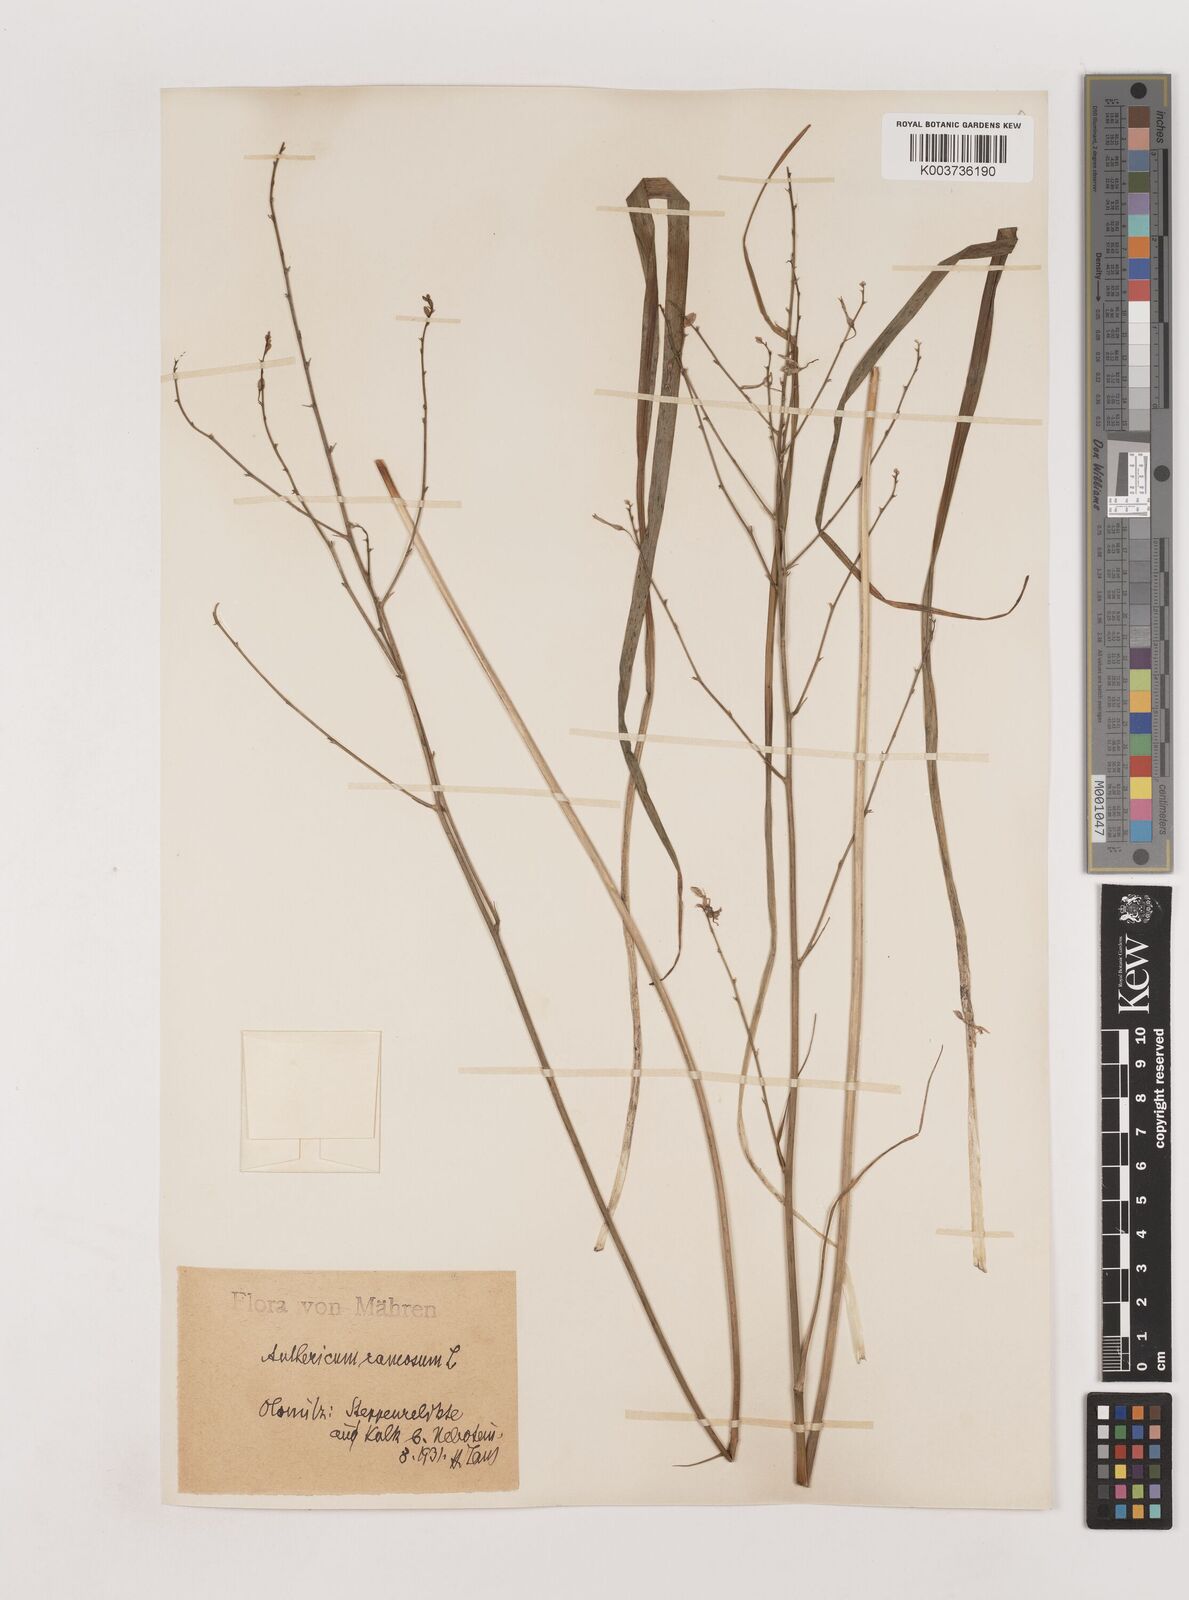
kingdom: Plantae
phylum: Tracheophyta
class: Liliopsida
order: Asparagales
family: Asparagaceae
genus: Anthericum
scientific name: Anthericum ramosum
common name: Branched st. bernard's-lily
